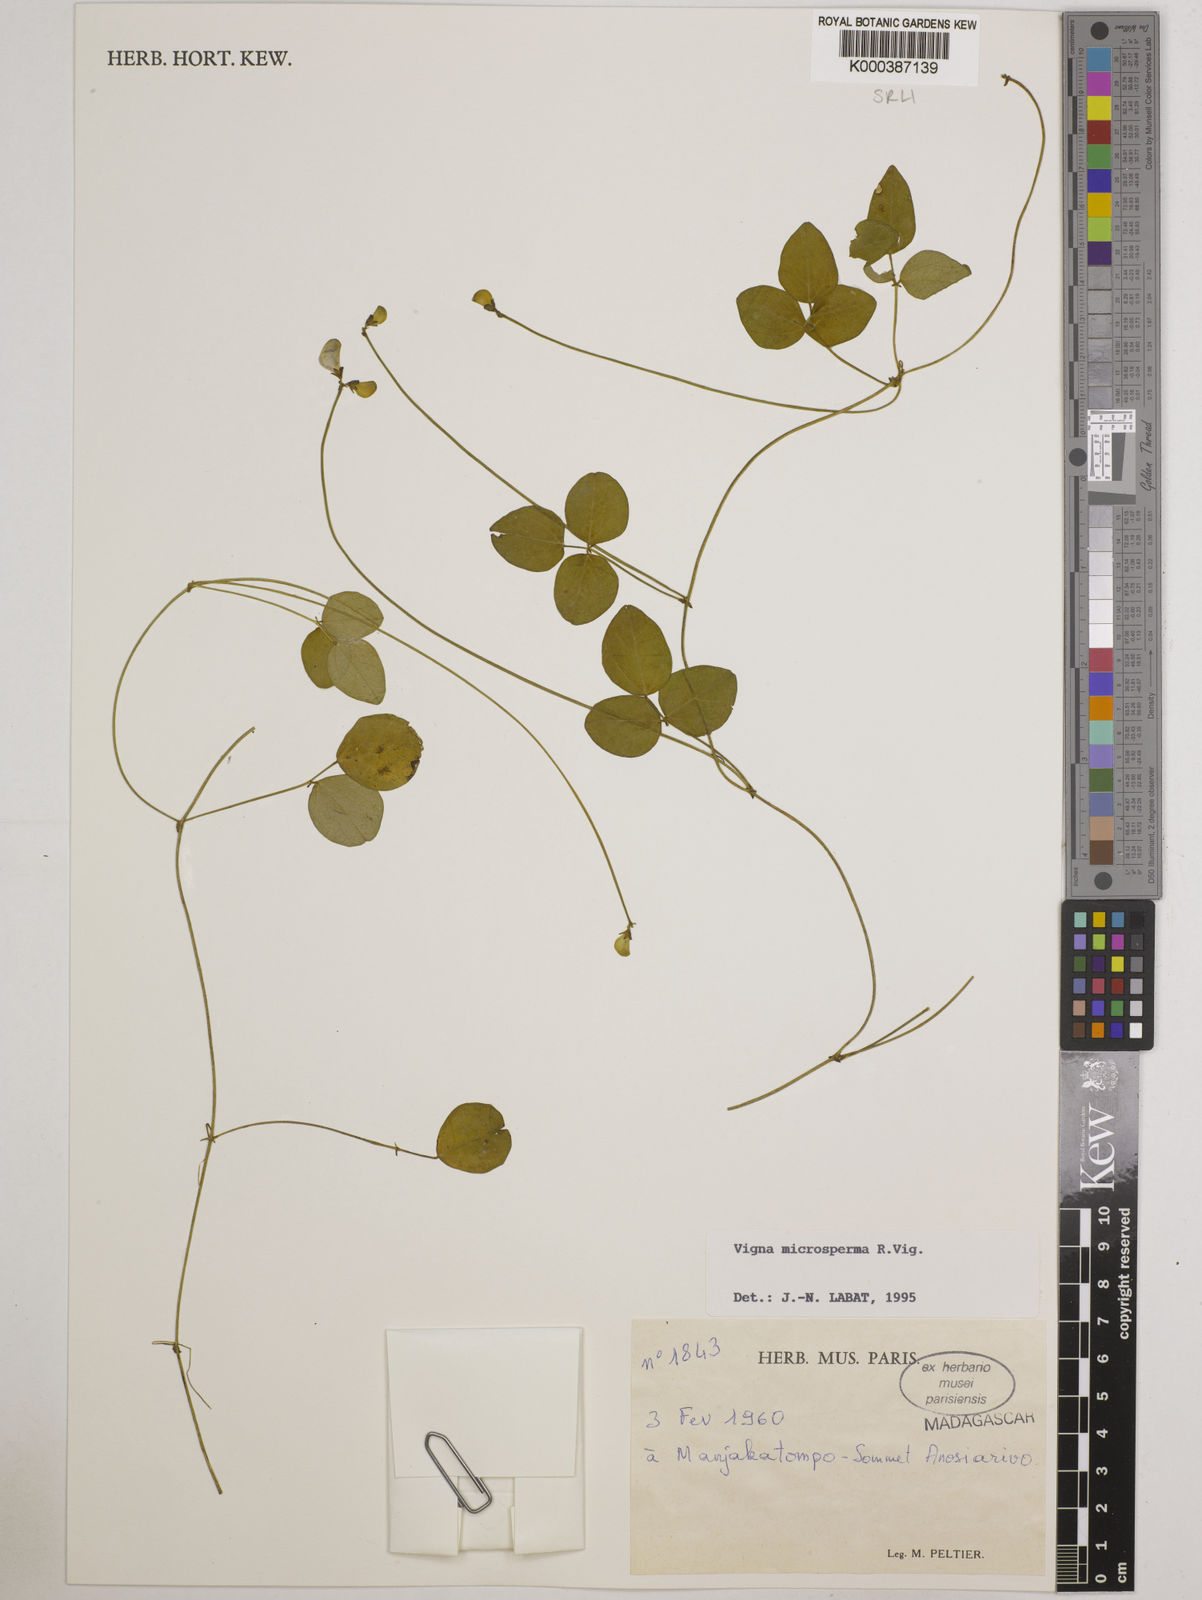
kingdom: Plantae
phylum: Tracheophyta
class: Magnoliopsida
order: Fabales
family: Fabaceae
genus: Vigna
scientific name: Vigna microsperma
